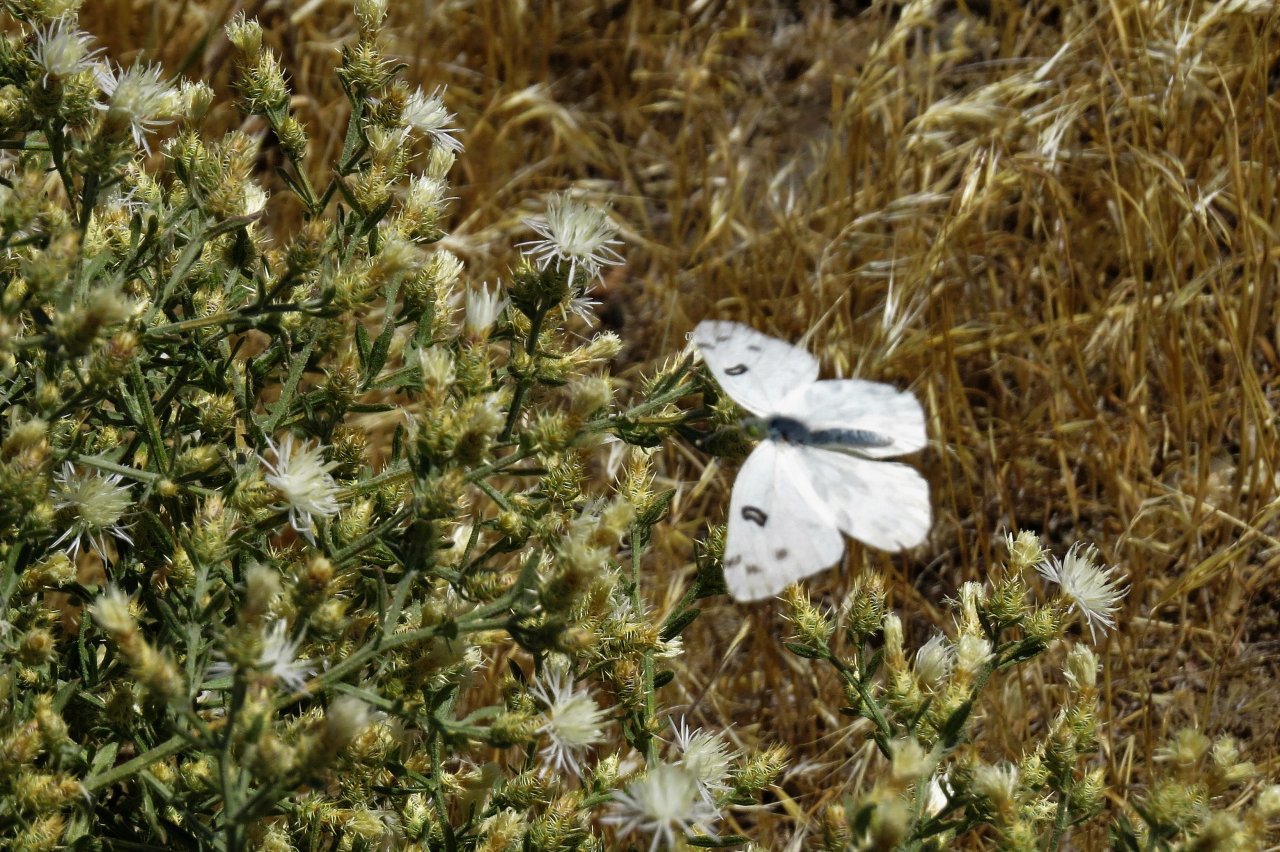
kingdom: Animalia
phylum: Arthropoda
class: Insecta
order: Lepidoptera
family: Pieridae
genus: Pontia
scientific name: Pontia beckerii
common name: Becker's White
